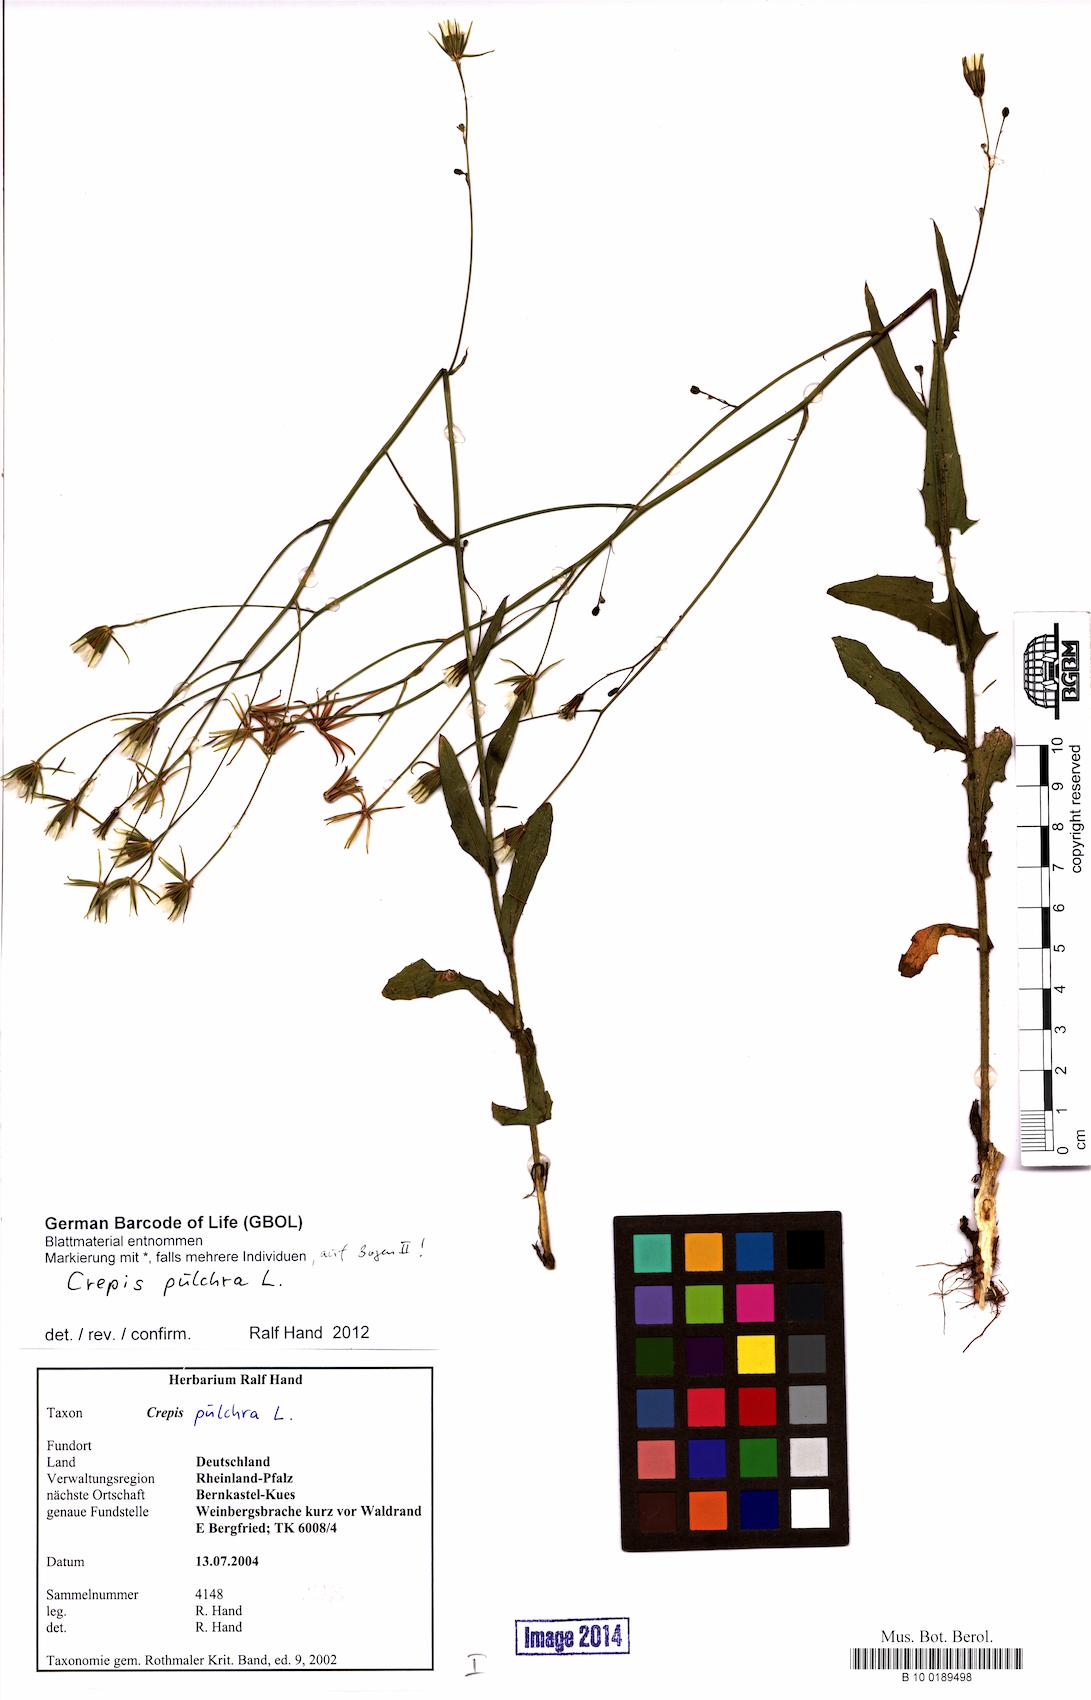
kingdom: Plantae
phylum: Tracheophyta
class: Magnoliopsida
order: Asterales
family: Asteraceae
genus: Crepis
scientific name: Crepis pulchra
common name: Hawk's-beard
